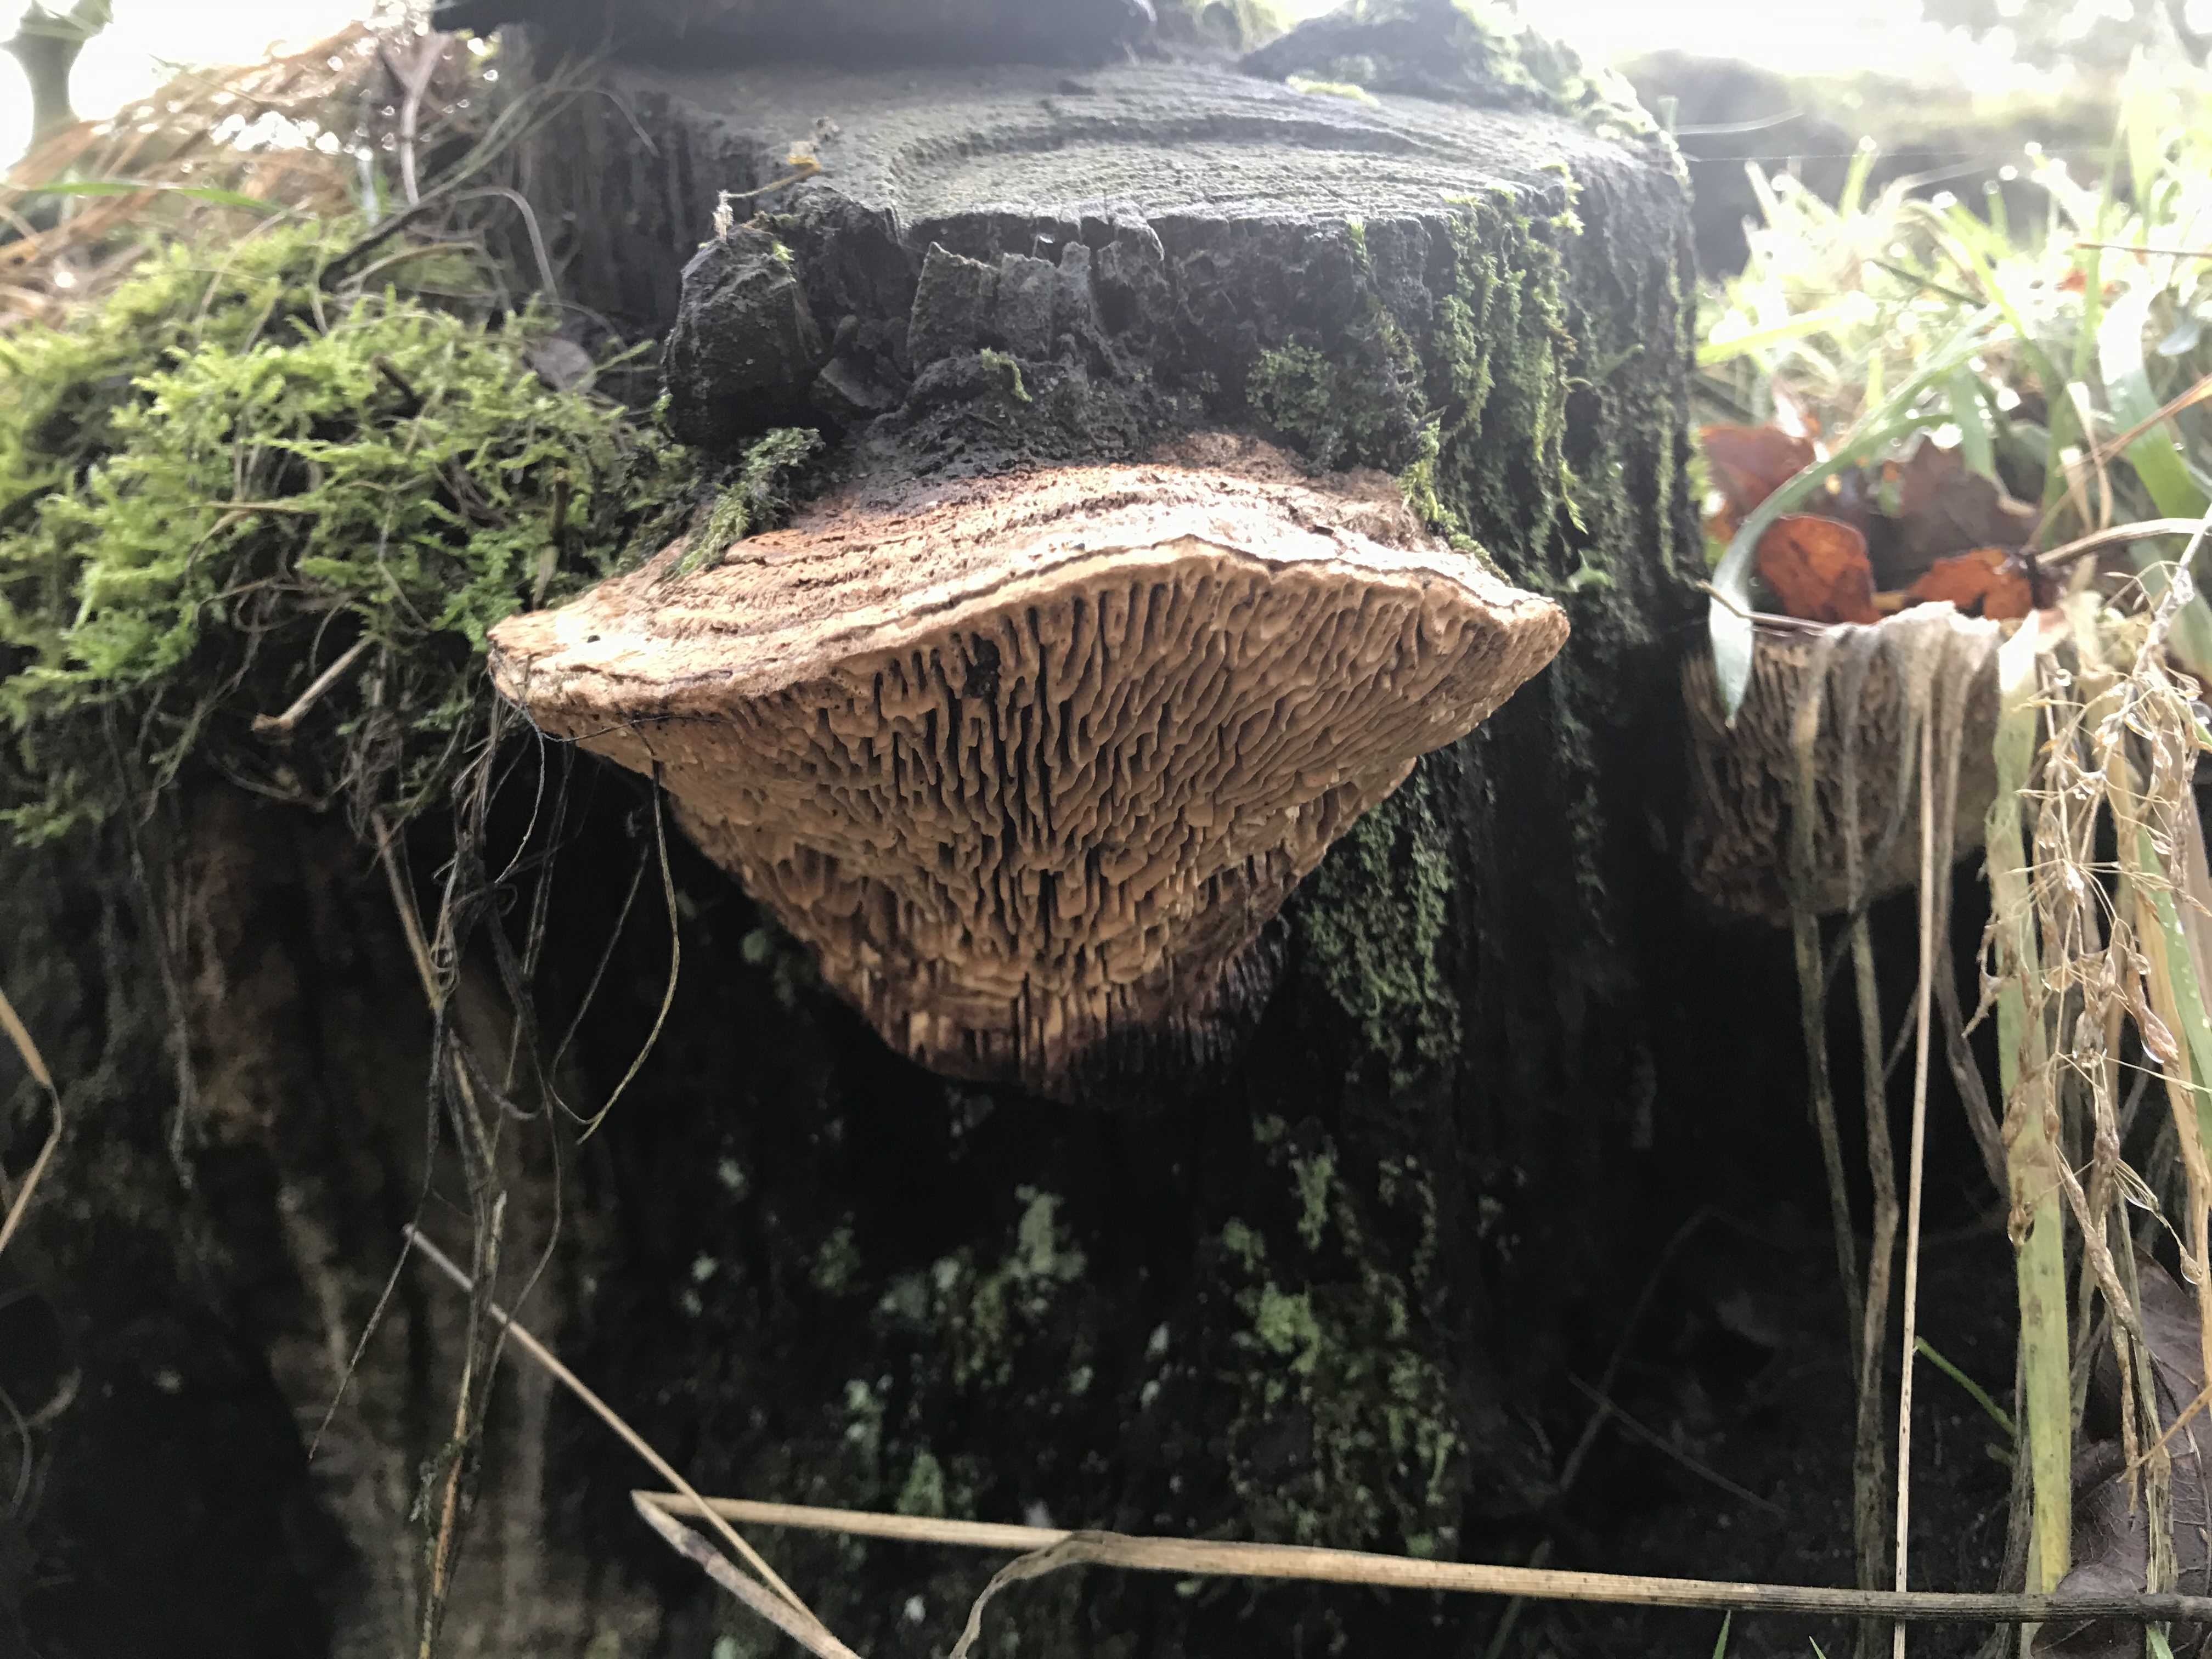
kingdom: Fungi
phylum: Basidiomycota
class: Agaricomycetes
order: Polyporales
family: Fomitopsidaceae
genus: Daedalea
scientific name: Daedalea quercina
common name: ege-labyrintsvamp
